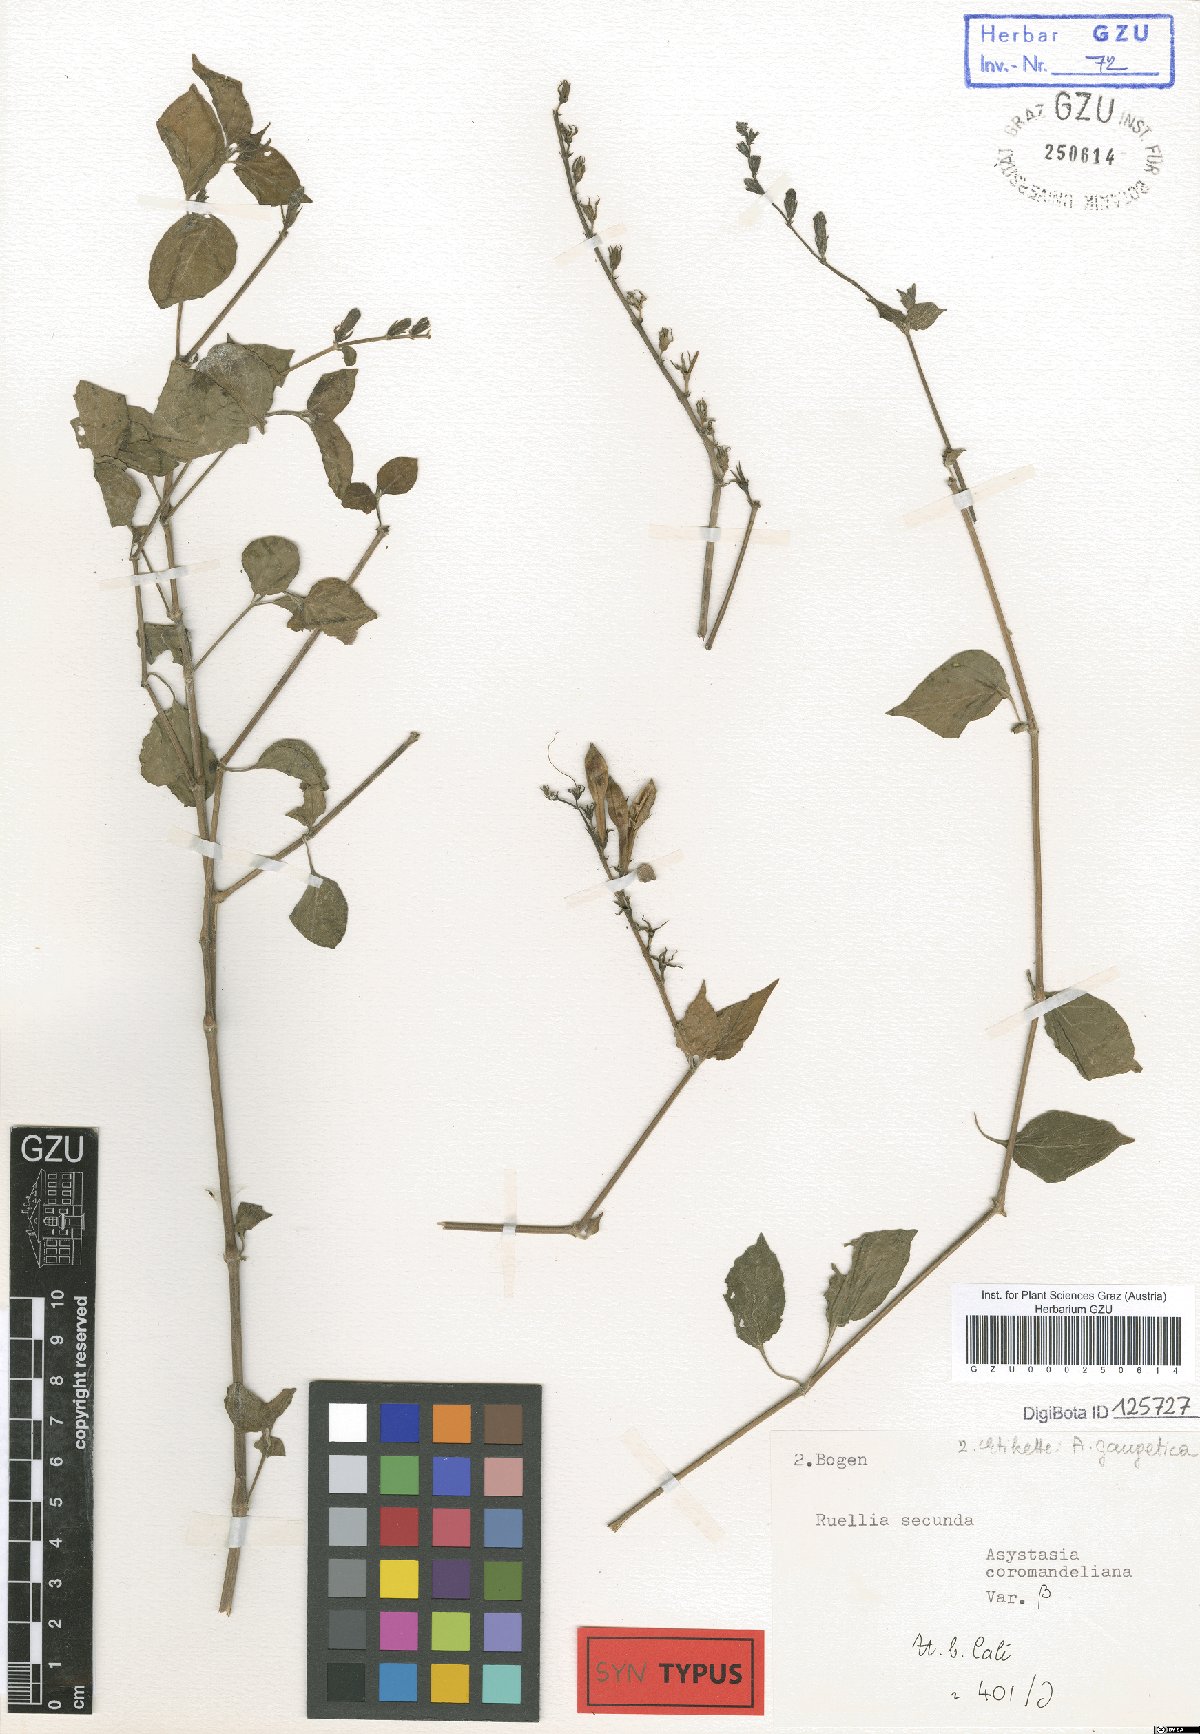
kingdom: Plantae
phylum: Tracheophyta
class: Magnoliopsida
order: Lamiales
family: Acanthaceae
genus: Asystasia
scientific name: Asystasia gangetica
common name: Chinese violet
